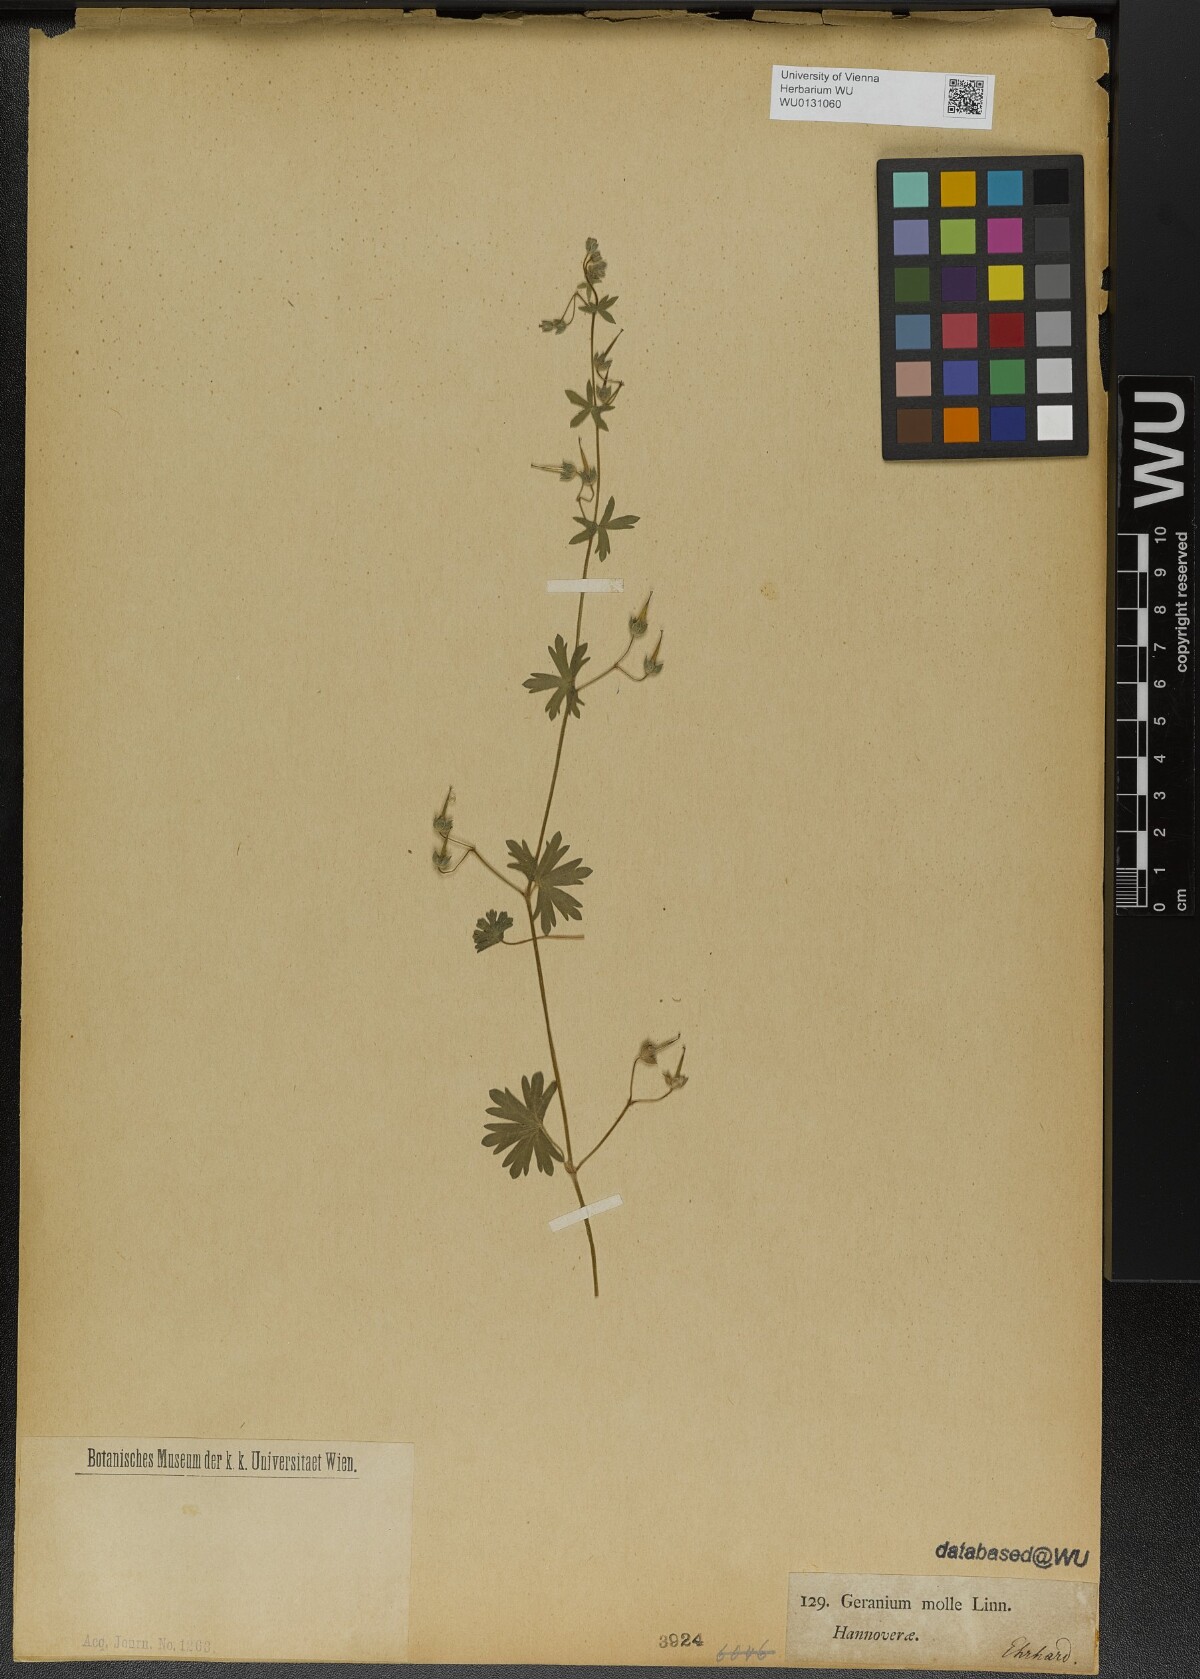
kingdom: Plantae
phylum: Tracheophyta
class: Magnoliopsida
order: Geraniales
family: Geraniaceae
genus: Geranium
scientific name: Geranium molle
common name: Dove's-foot crane's-bill
